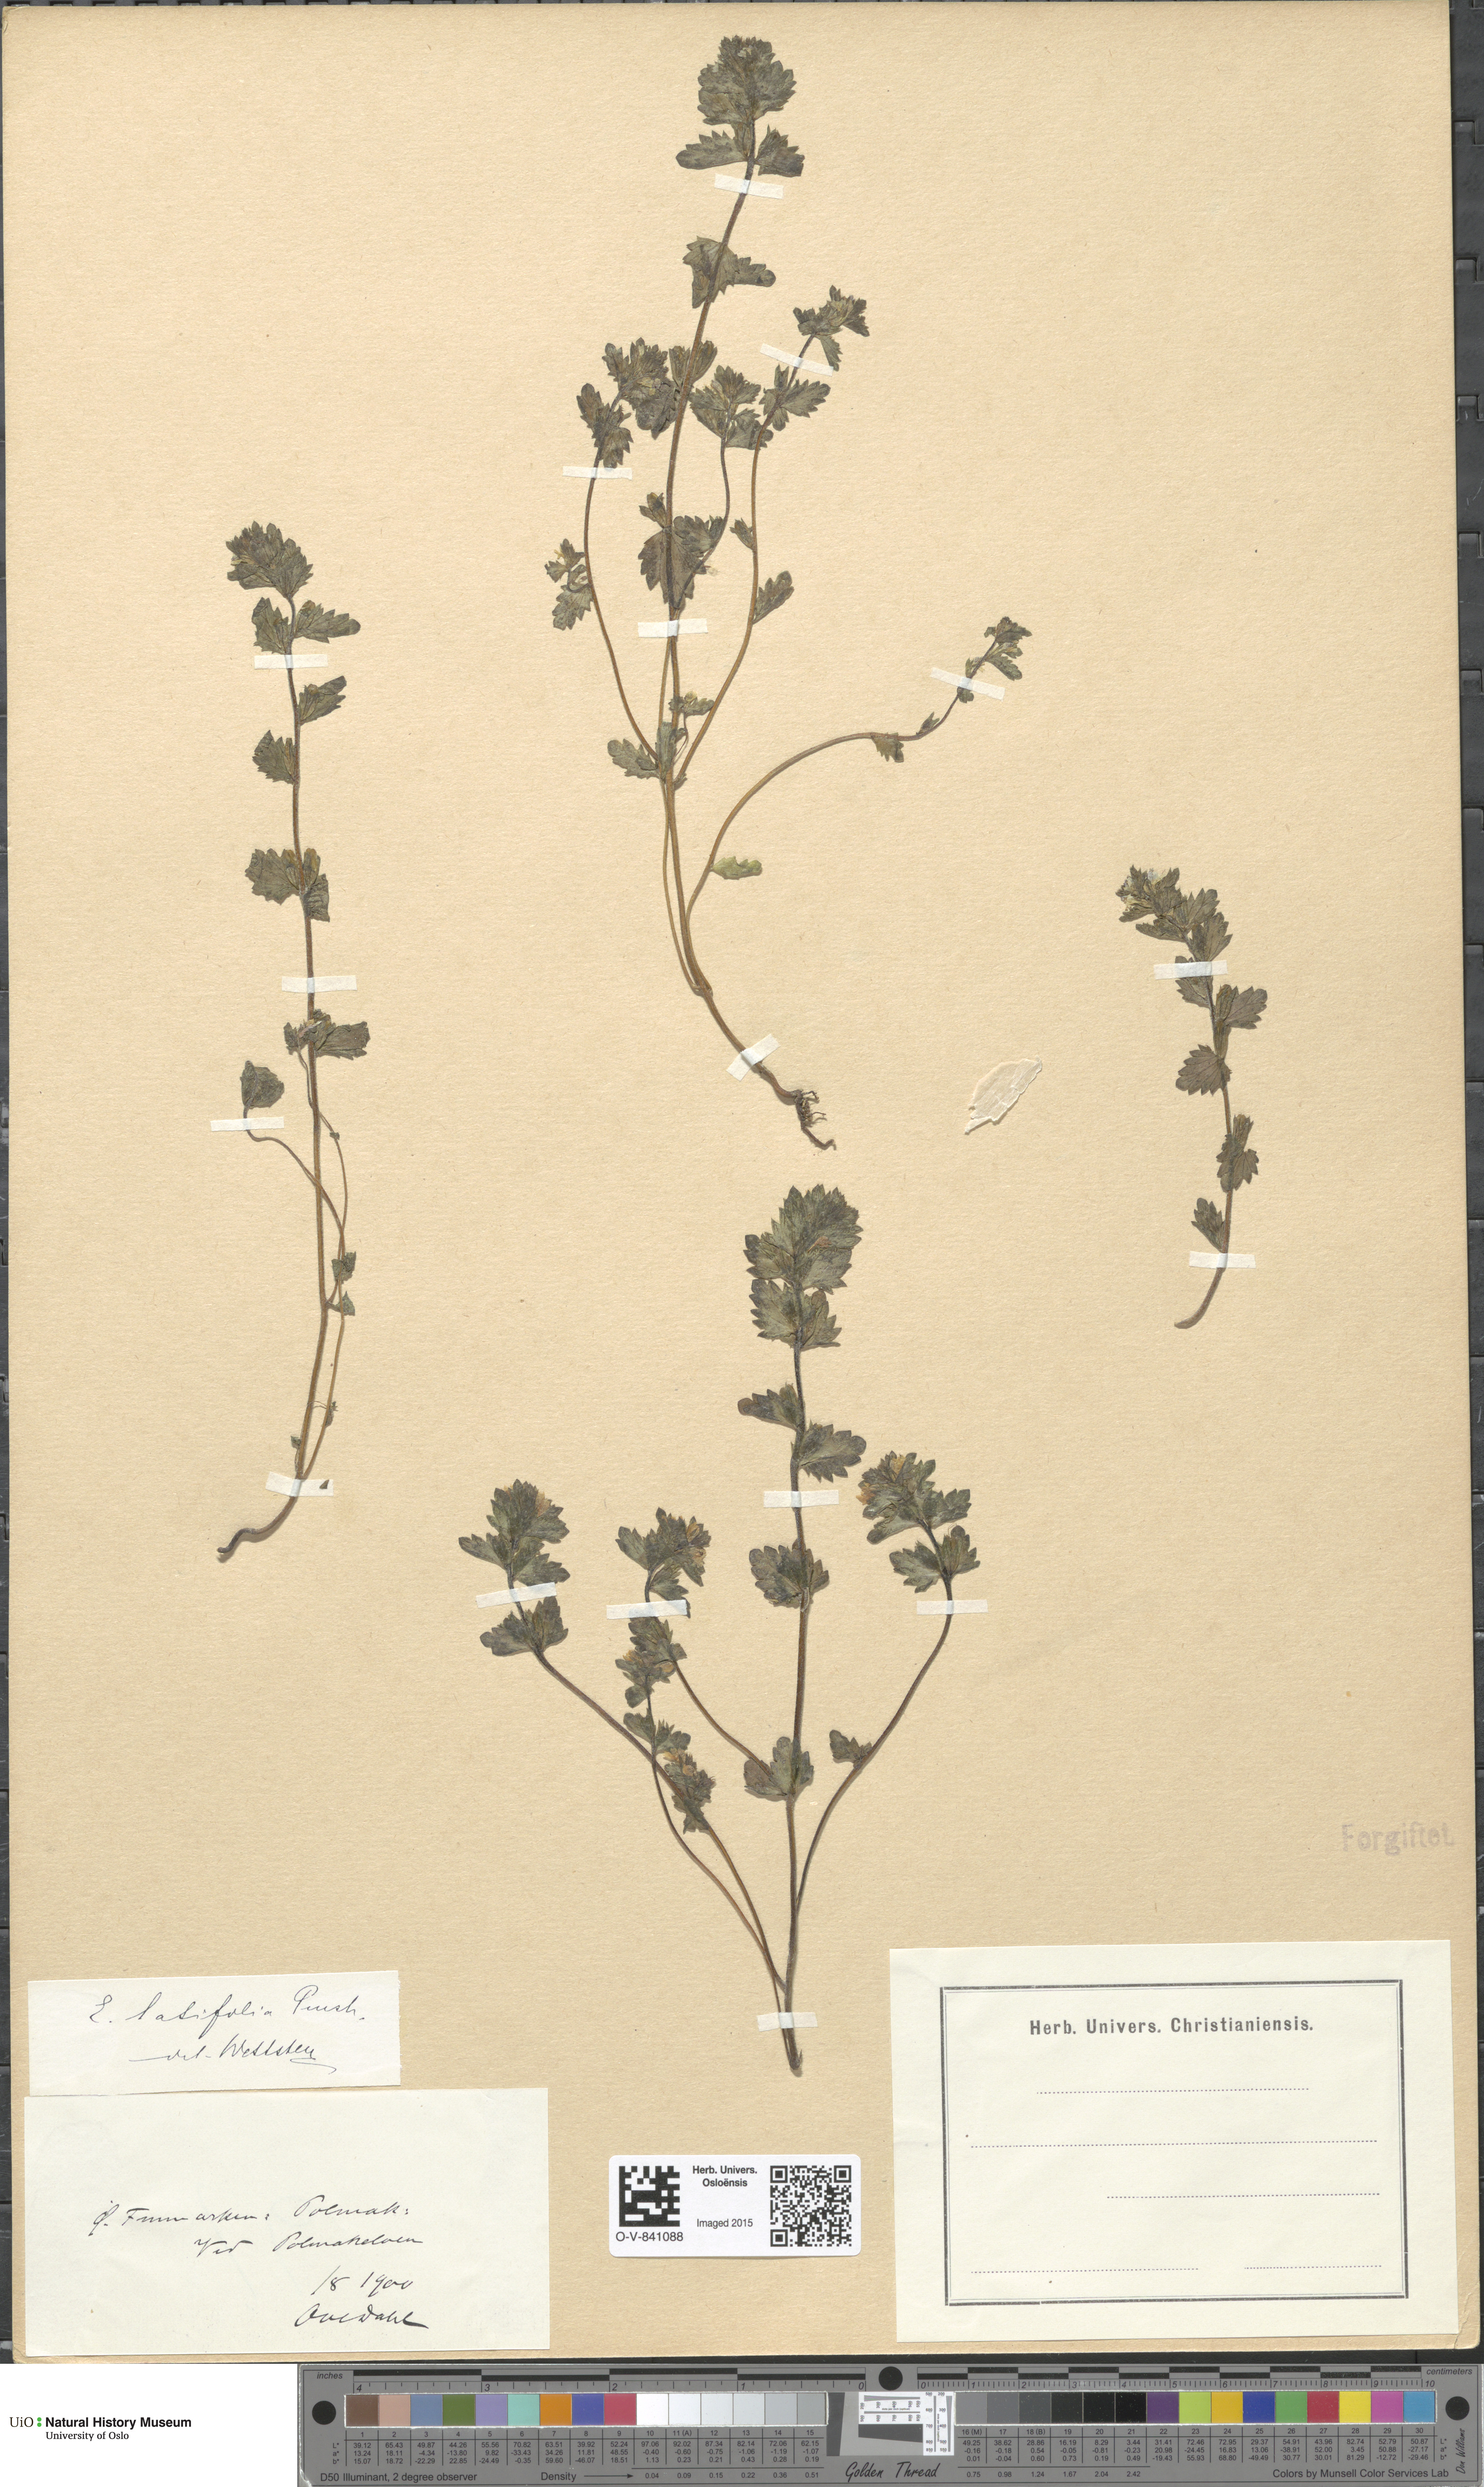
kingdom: Plantae
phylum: Tracheophyta
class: Magnoliopsida
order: Lamiales
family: Orobanchaceae
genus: Euphrasia
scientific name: Euphrasia wettsteinii
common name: Wettstein's eyebright
